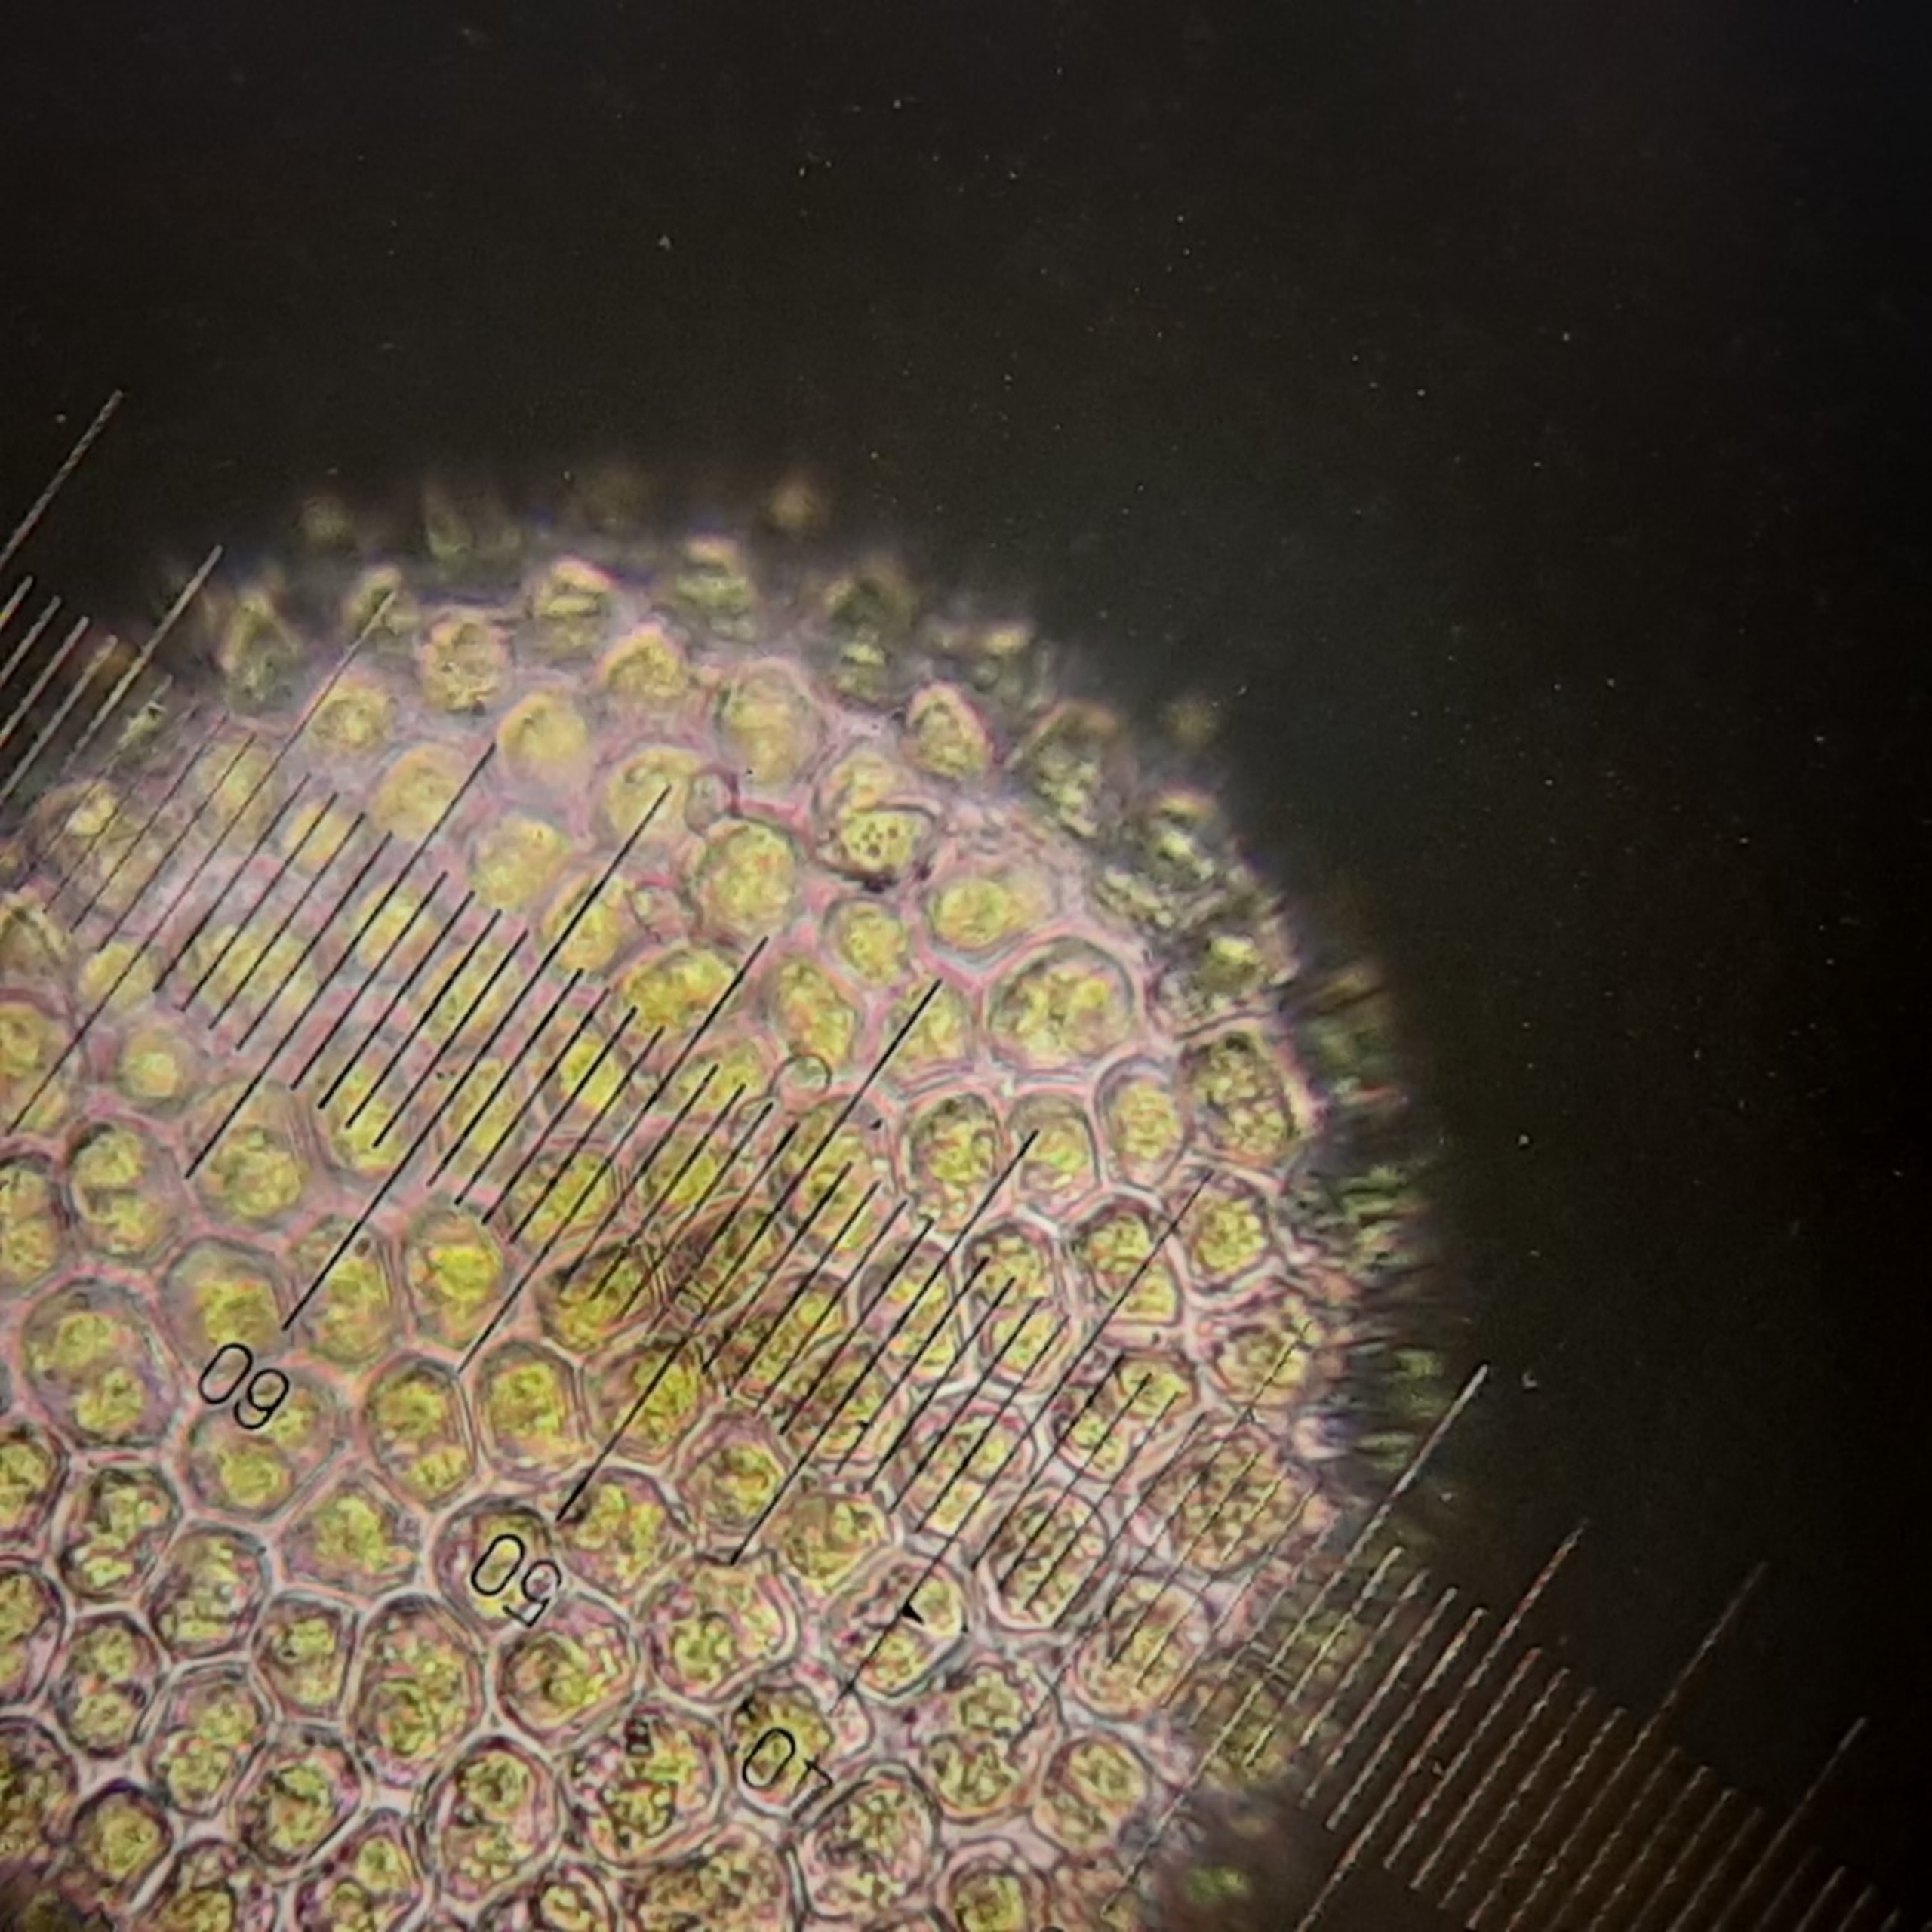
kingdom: Plantae
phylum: Bryophyta
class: Bryopsida
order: Dicranales
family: Fissidentaceae
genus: Fissidens
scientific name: Fissidens dubius
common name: Tør rademos
